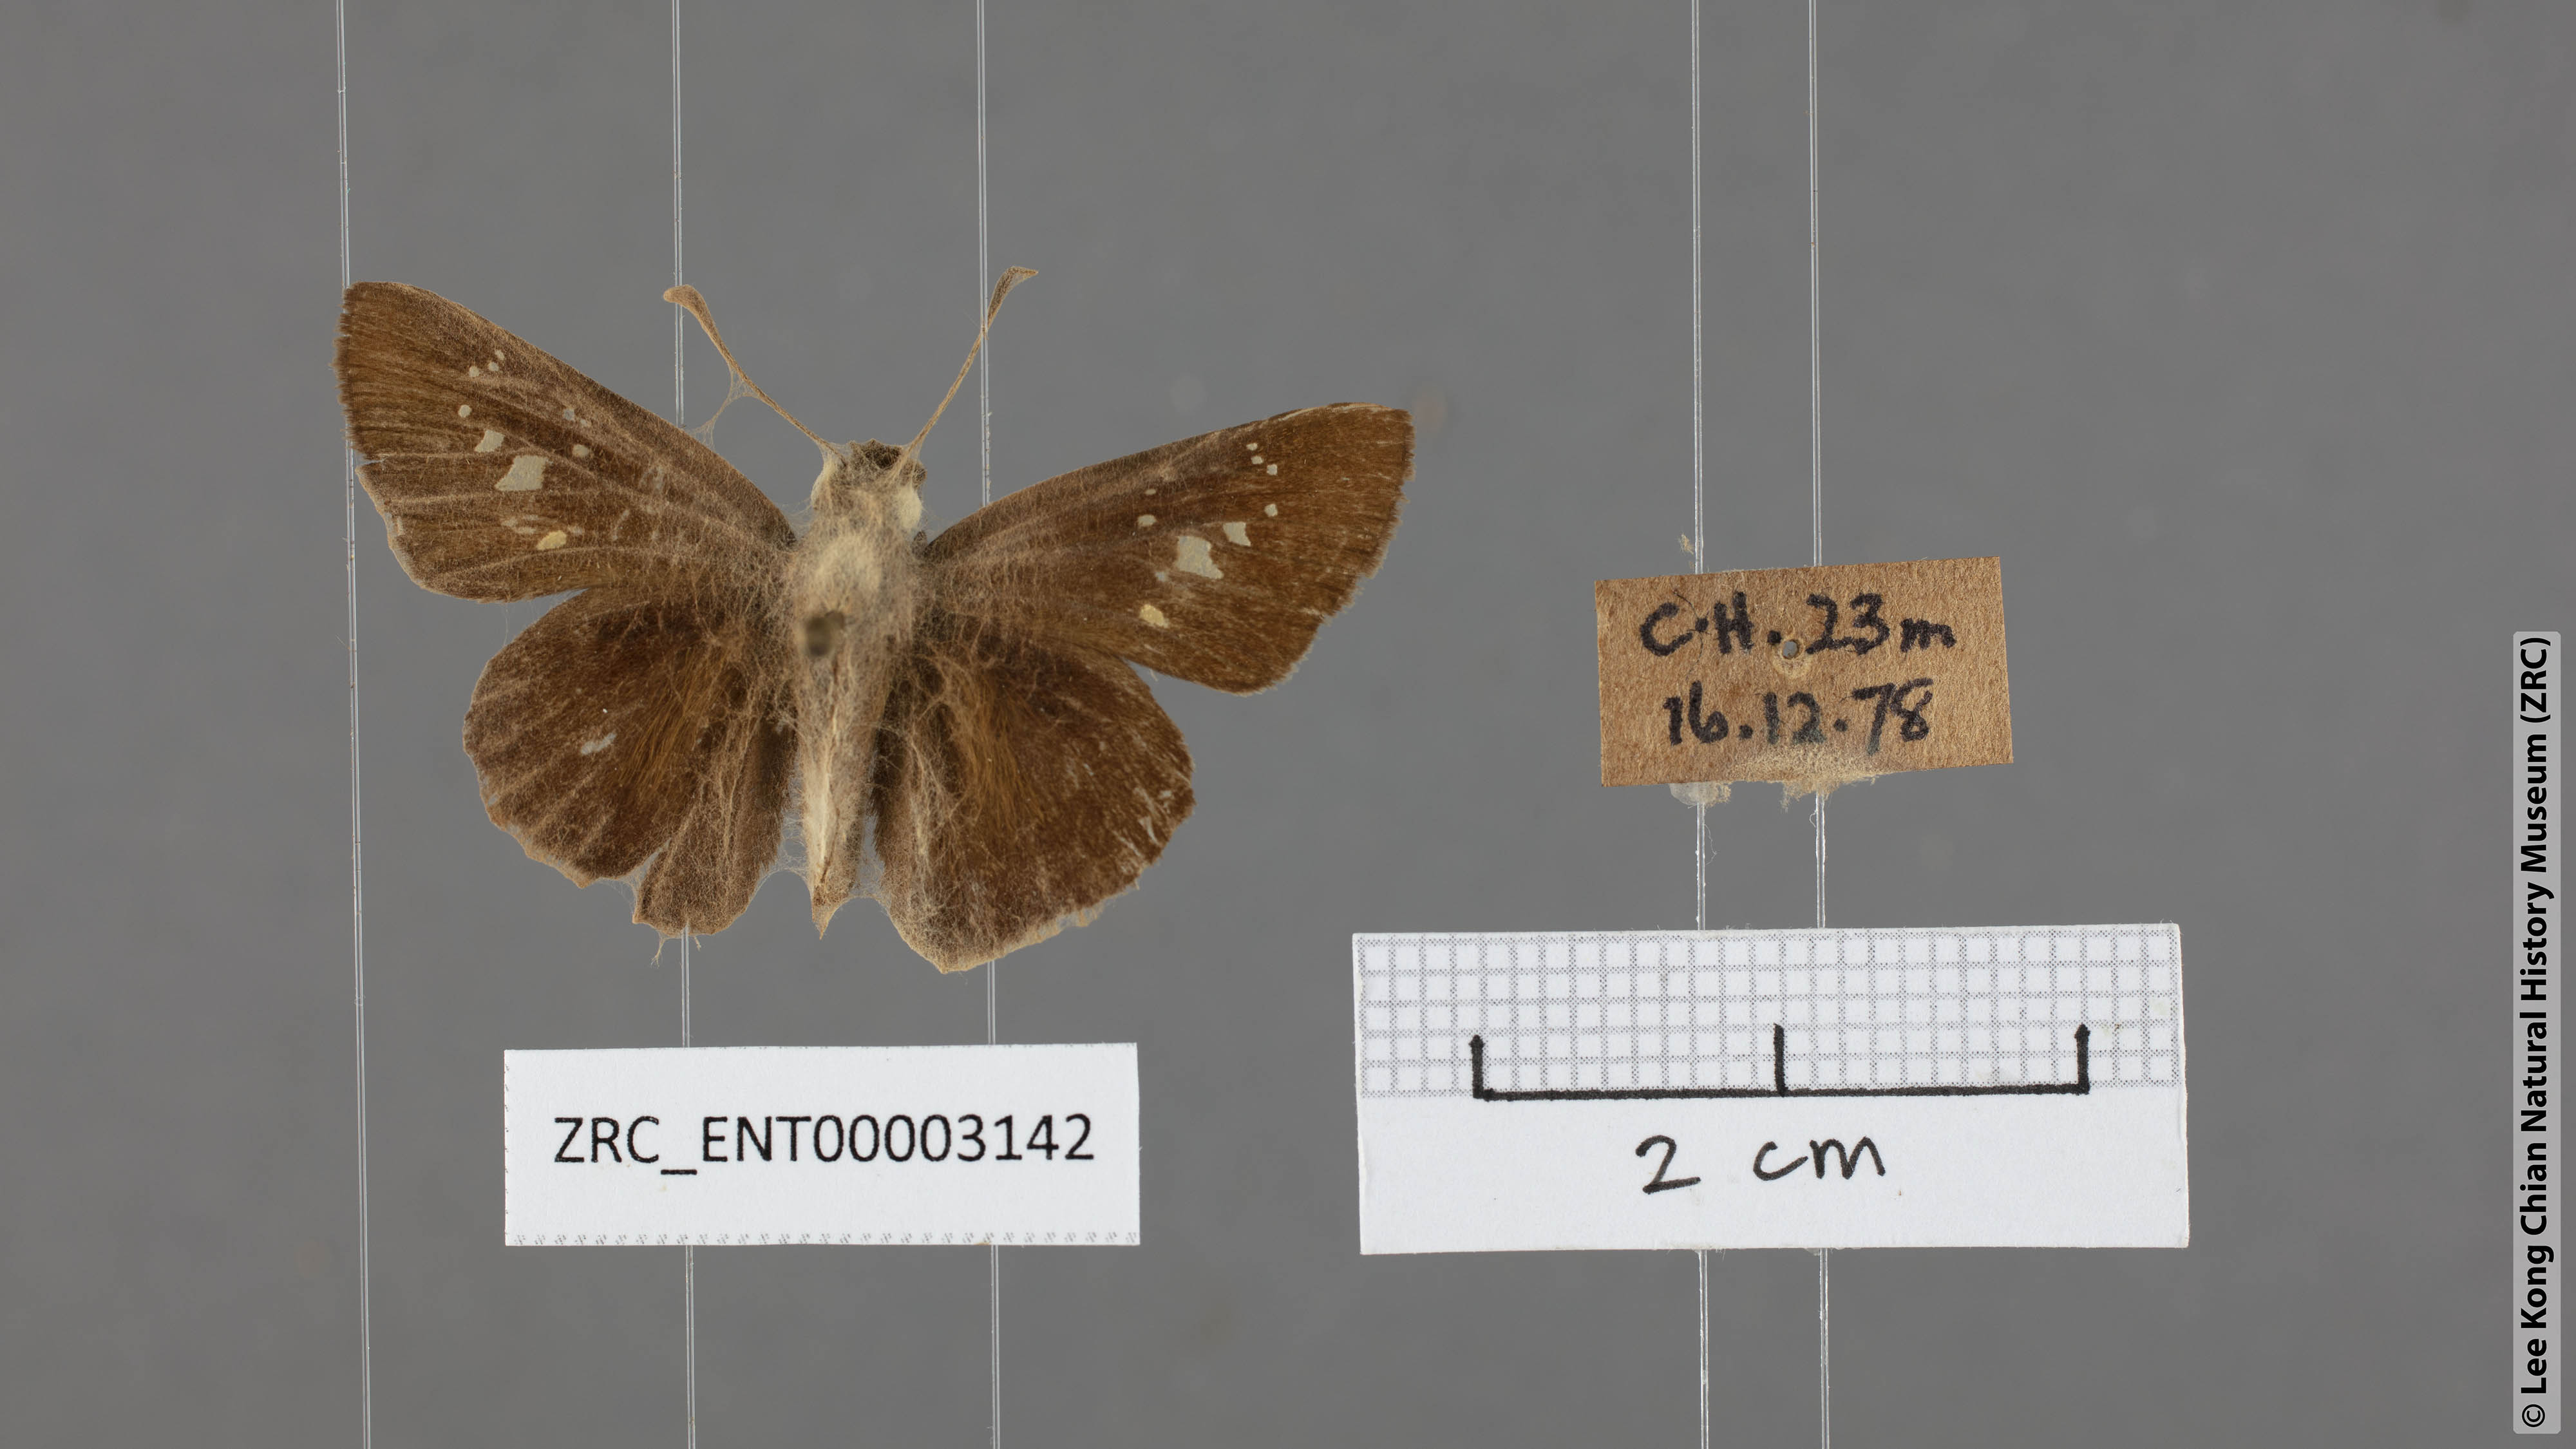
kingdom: Animalia
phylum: Arthropoda
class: Insecta
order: Lepidoptera
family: Hesperiidae
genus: Borbo
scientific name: Borbo cinnara
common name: Formosan swift
